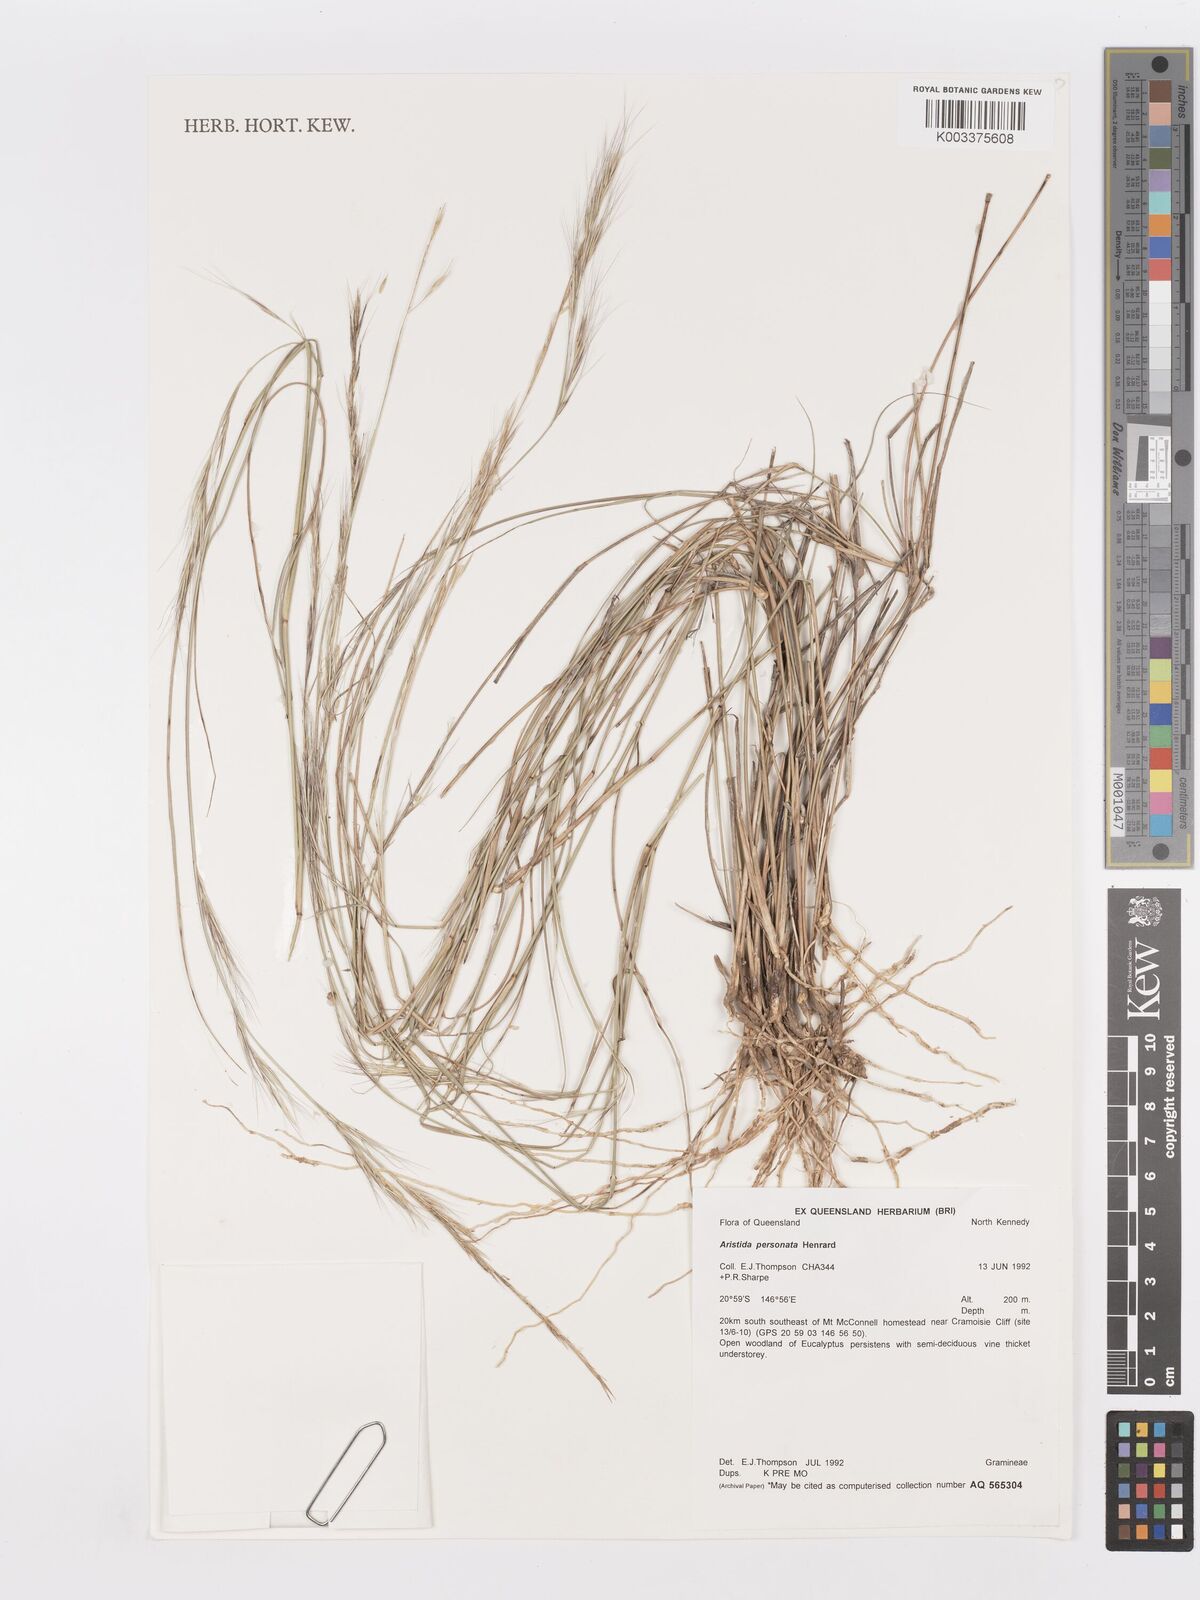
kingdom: Plantae
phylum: Tracheophyta
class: Liliopsida
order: Poales
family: Poaceae
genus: Aristida
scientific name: Aristida personata
